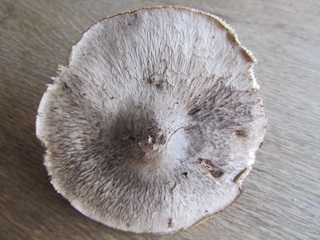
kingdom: Fungi
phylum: Basidiomycota
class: Agaricomycetes
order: Agaricales
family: Tricholomataceae
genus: Tricholoma
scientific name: Tricholoma atrosquamosum
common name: sortskællet ridderhat
